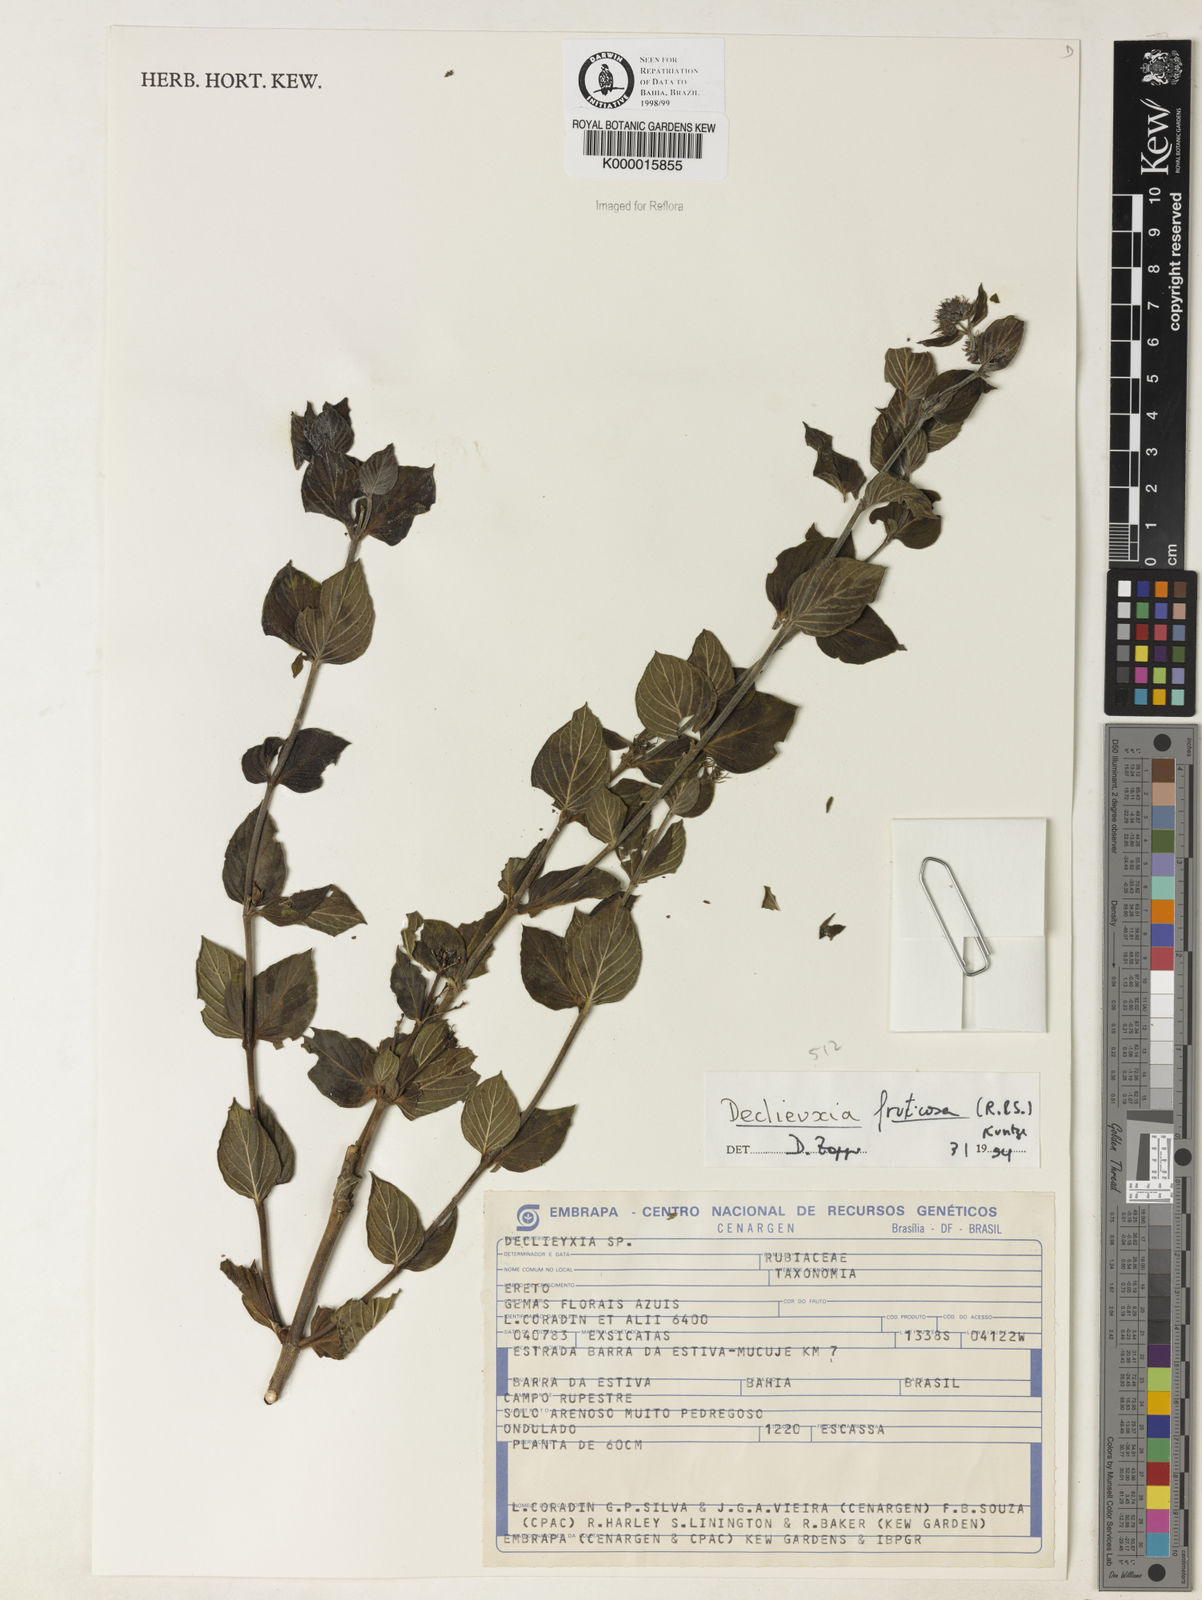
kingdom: Plantae
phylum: Tracheophyta
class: Magnoliopsida
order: Gentianales
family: Rubiaceae
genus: Declieuxia
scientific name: Declieuxia fruticosa
